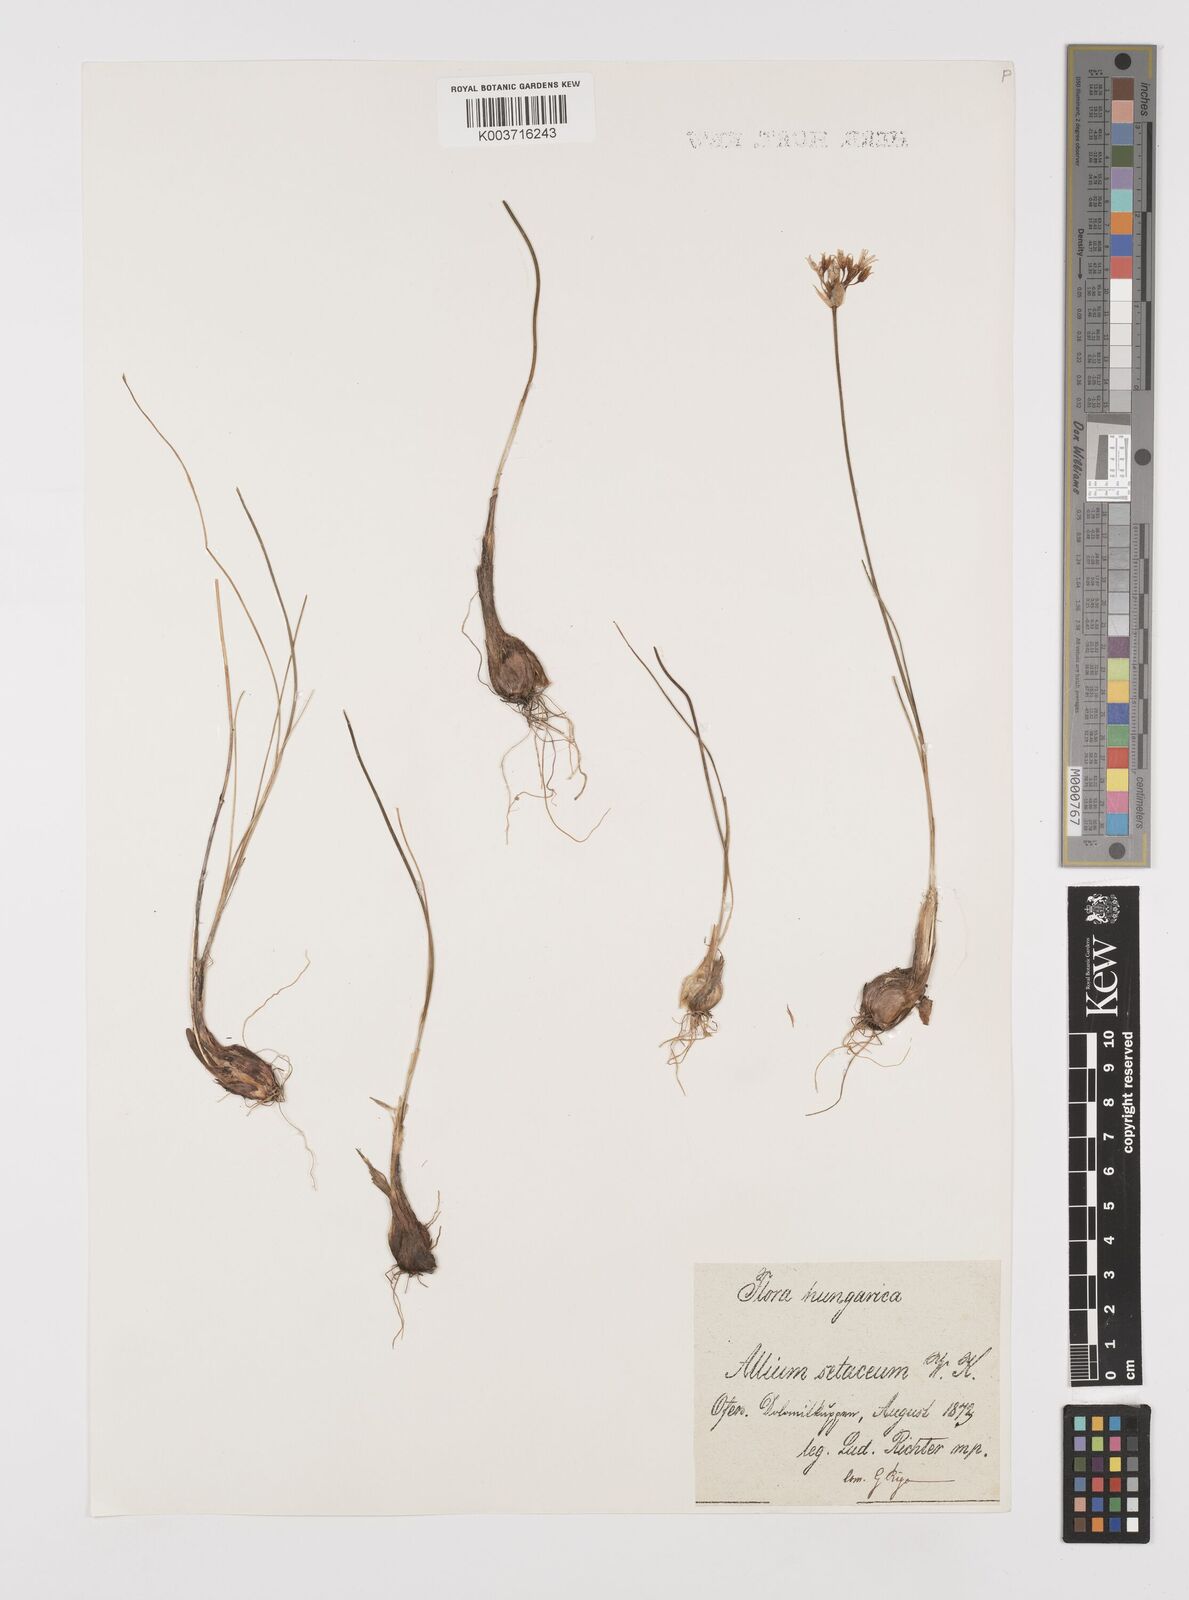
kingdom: Plantae
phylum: Tracheophyta
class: Liliopsida
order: Asparagales
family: Amaryllidaceae
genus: Allium
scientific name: Allium moschatum
